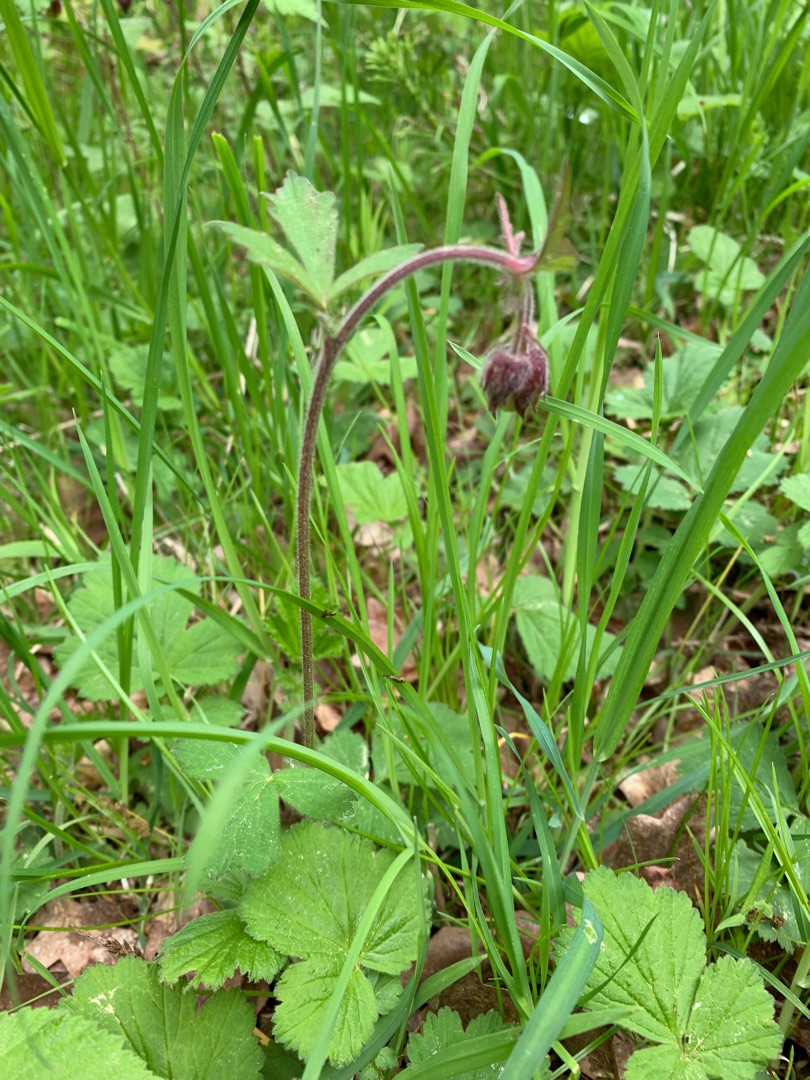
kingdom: Plantae
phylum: Tracheophyta
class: Magnoliopsida
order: Rosales
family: Rosaceae
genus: Geum
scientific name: Geum rivale
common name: Eng-nellikerod
